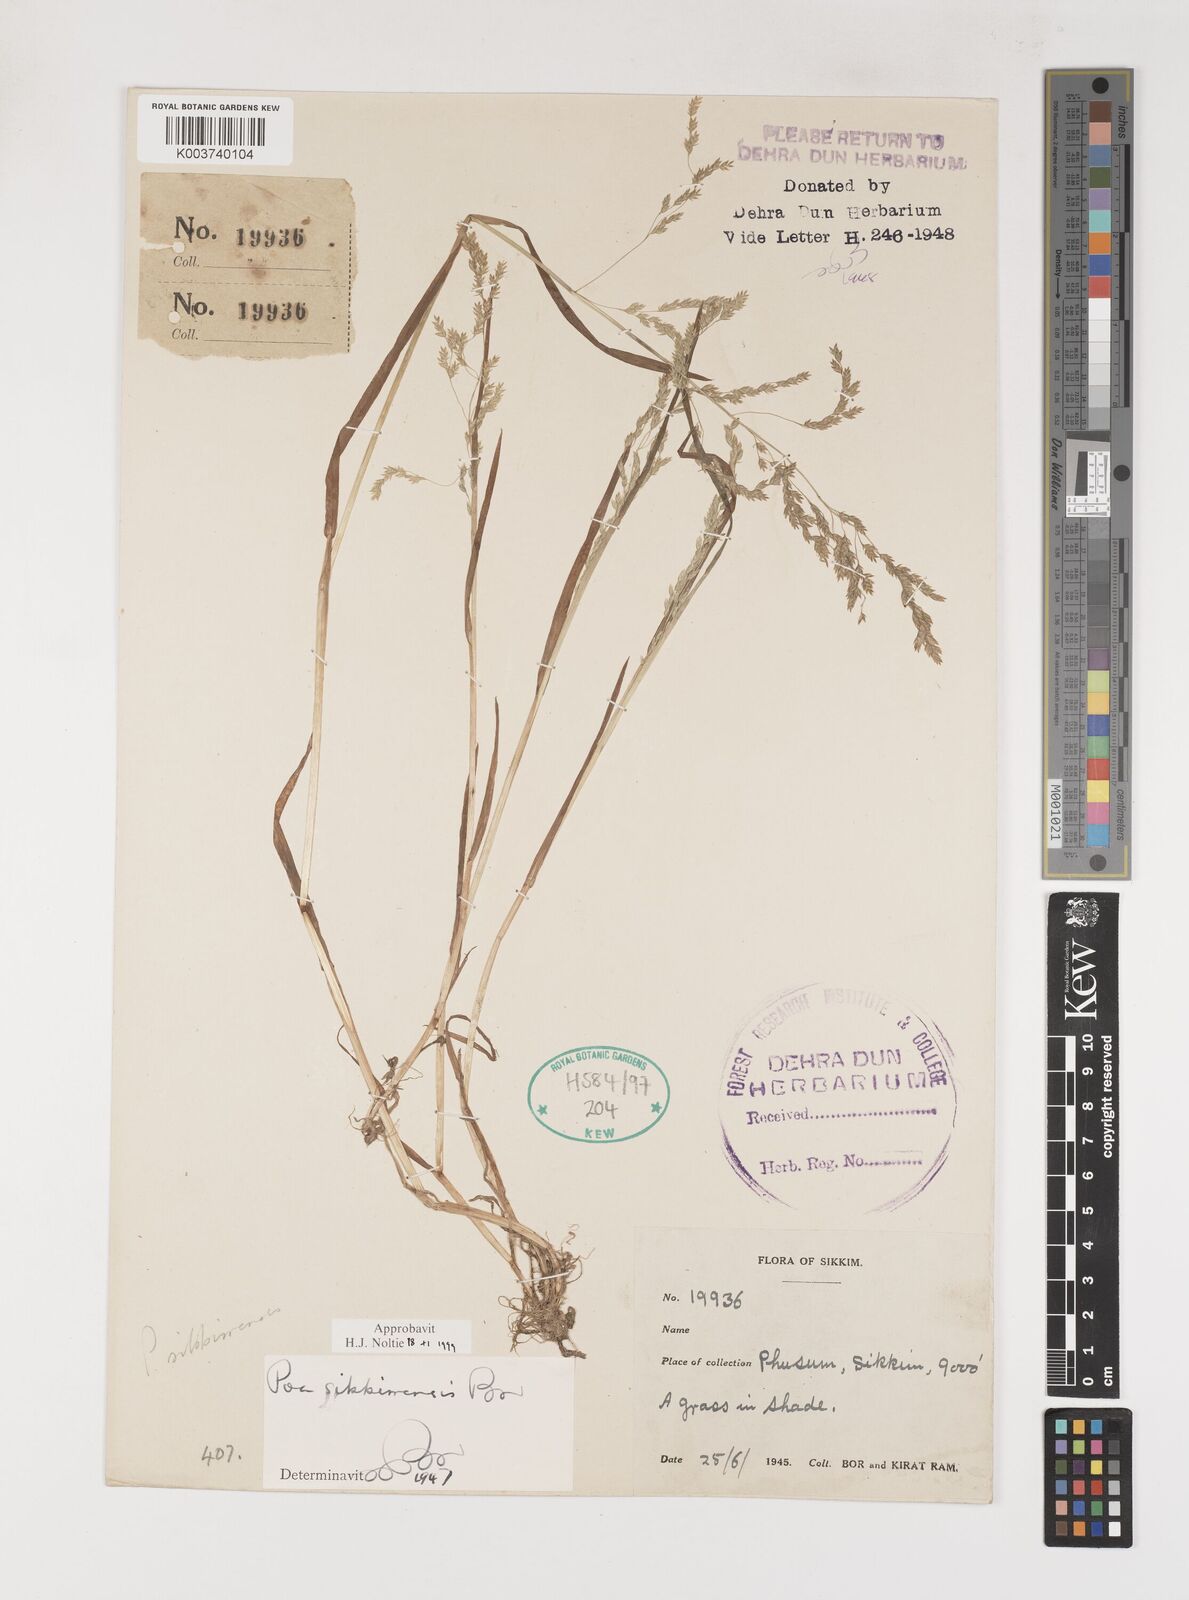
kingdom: Plantae
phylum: Tracheophyta
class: Liliopsida
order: Poales
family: Poaceae
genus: Poa
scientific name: Poa sikkimensis
